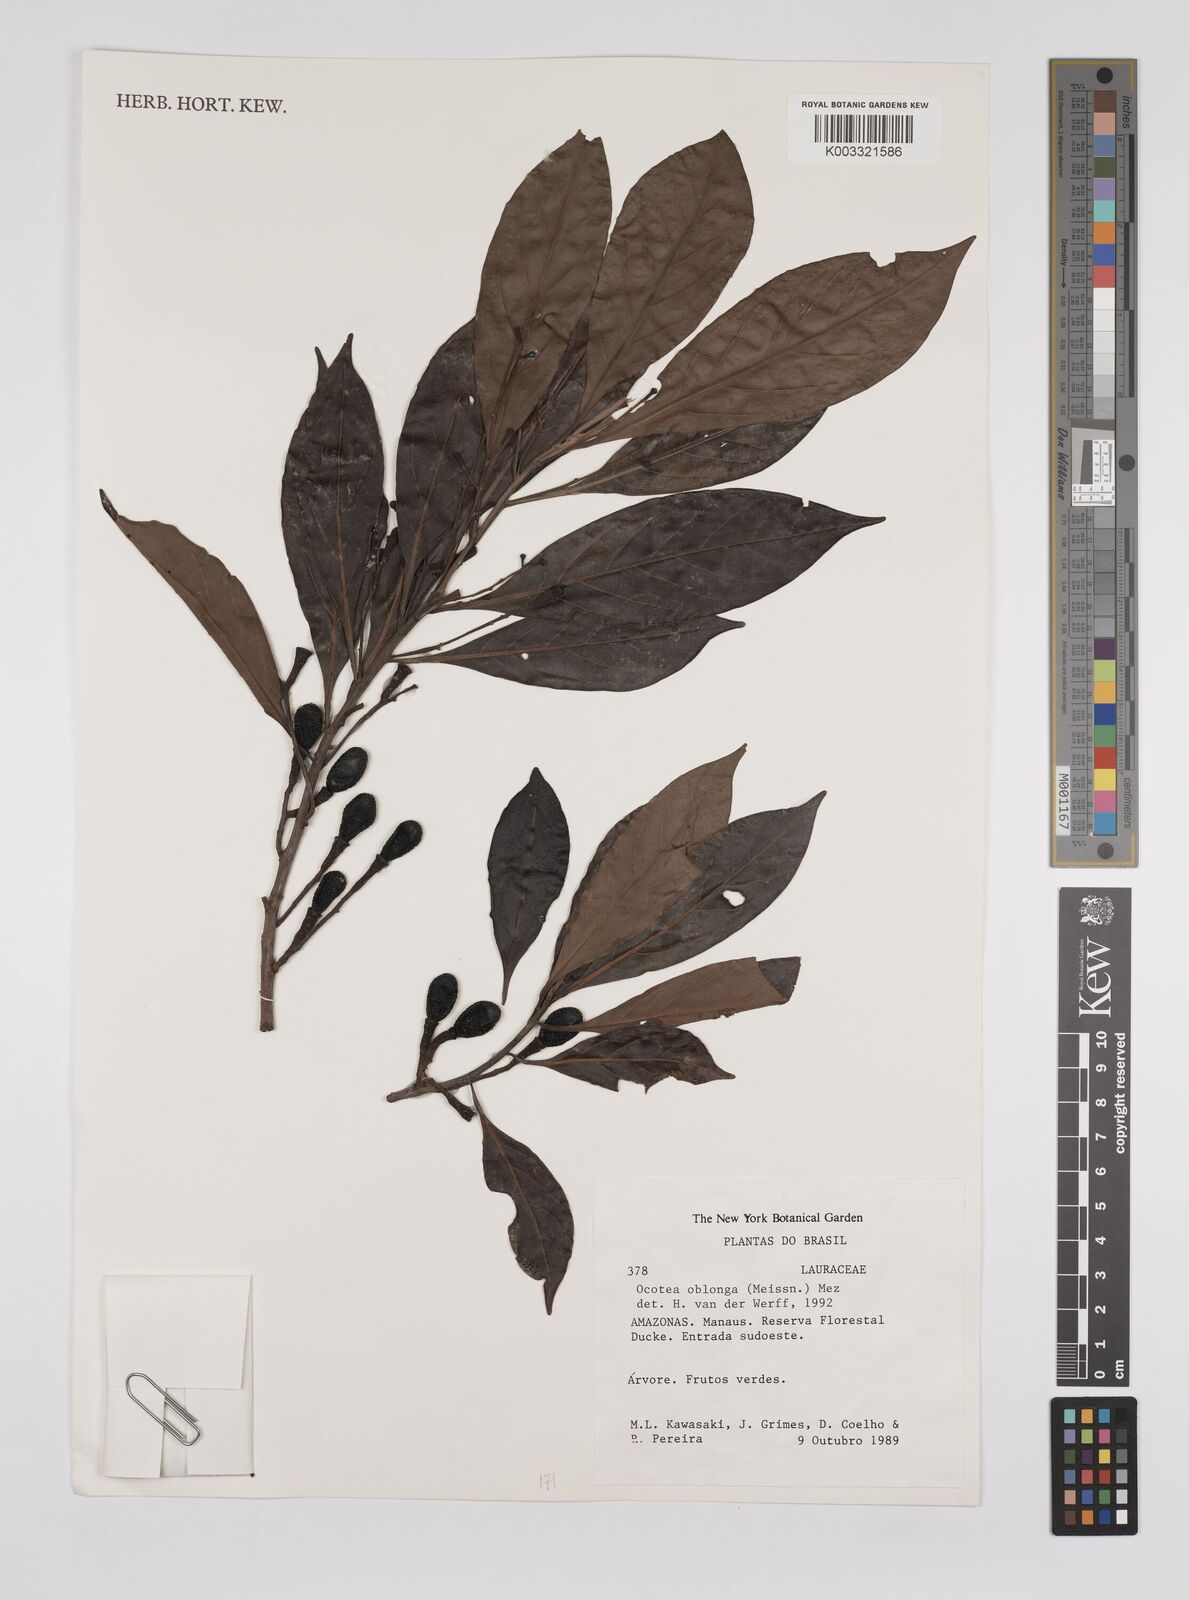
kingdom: Plantae
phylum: Tracheophyta
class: Magnoliopsida
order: Laurales
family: Lauraceae
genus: Ocotea
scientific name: Ocotea oblonga
